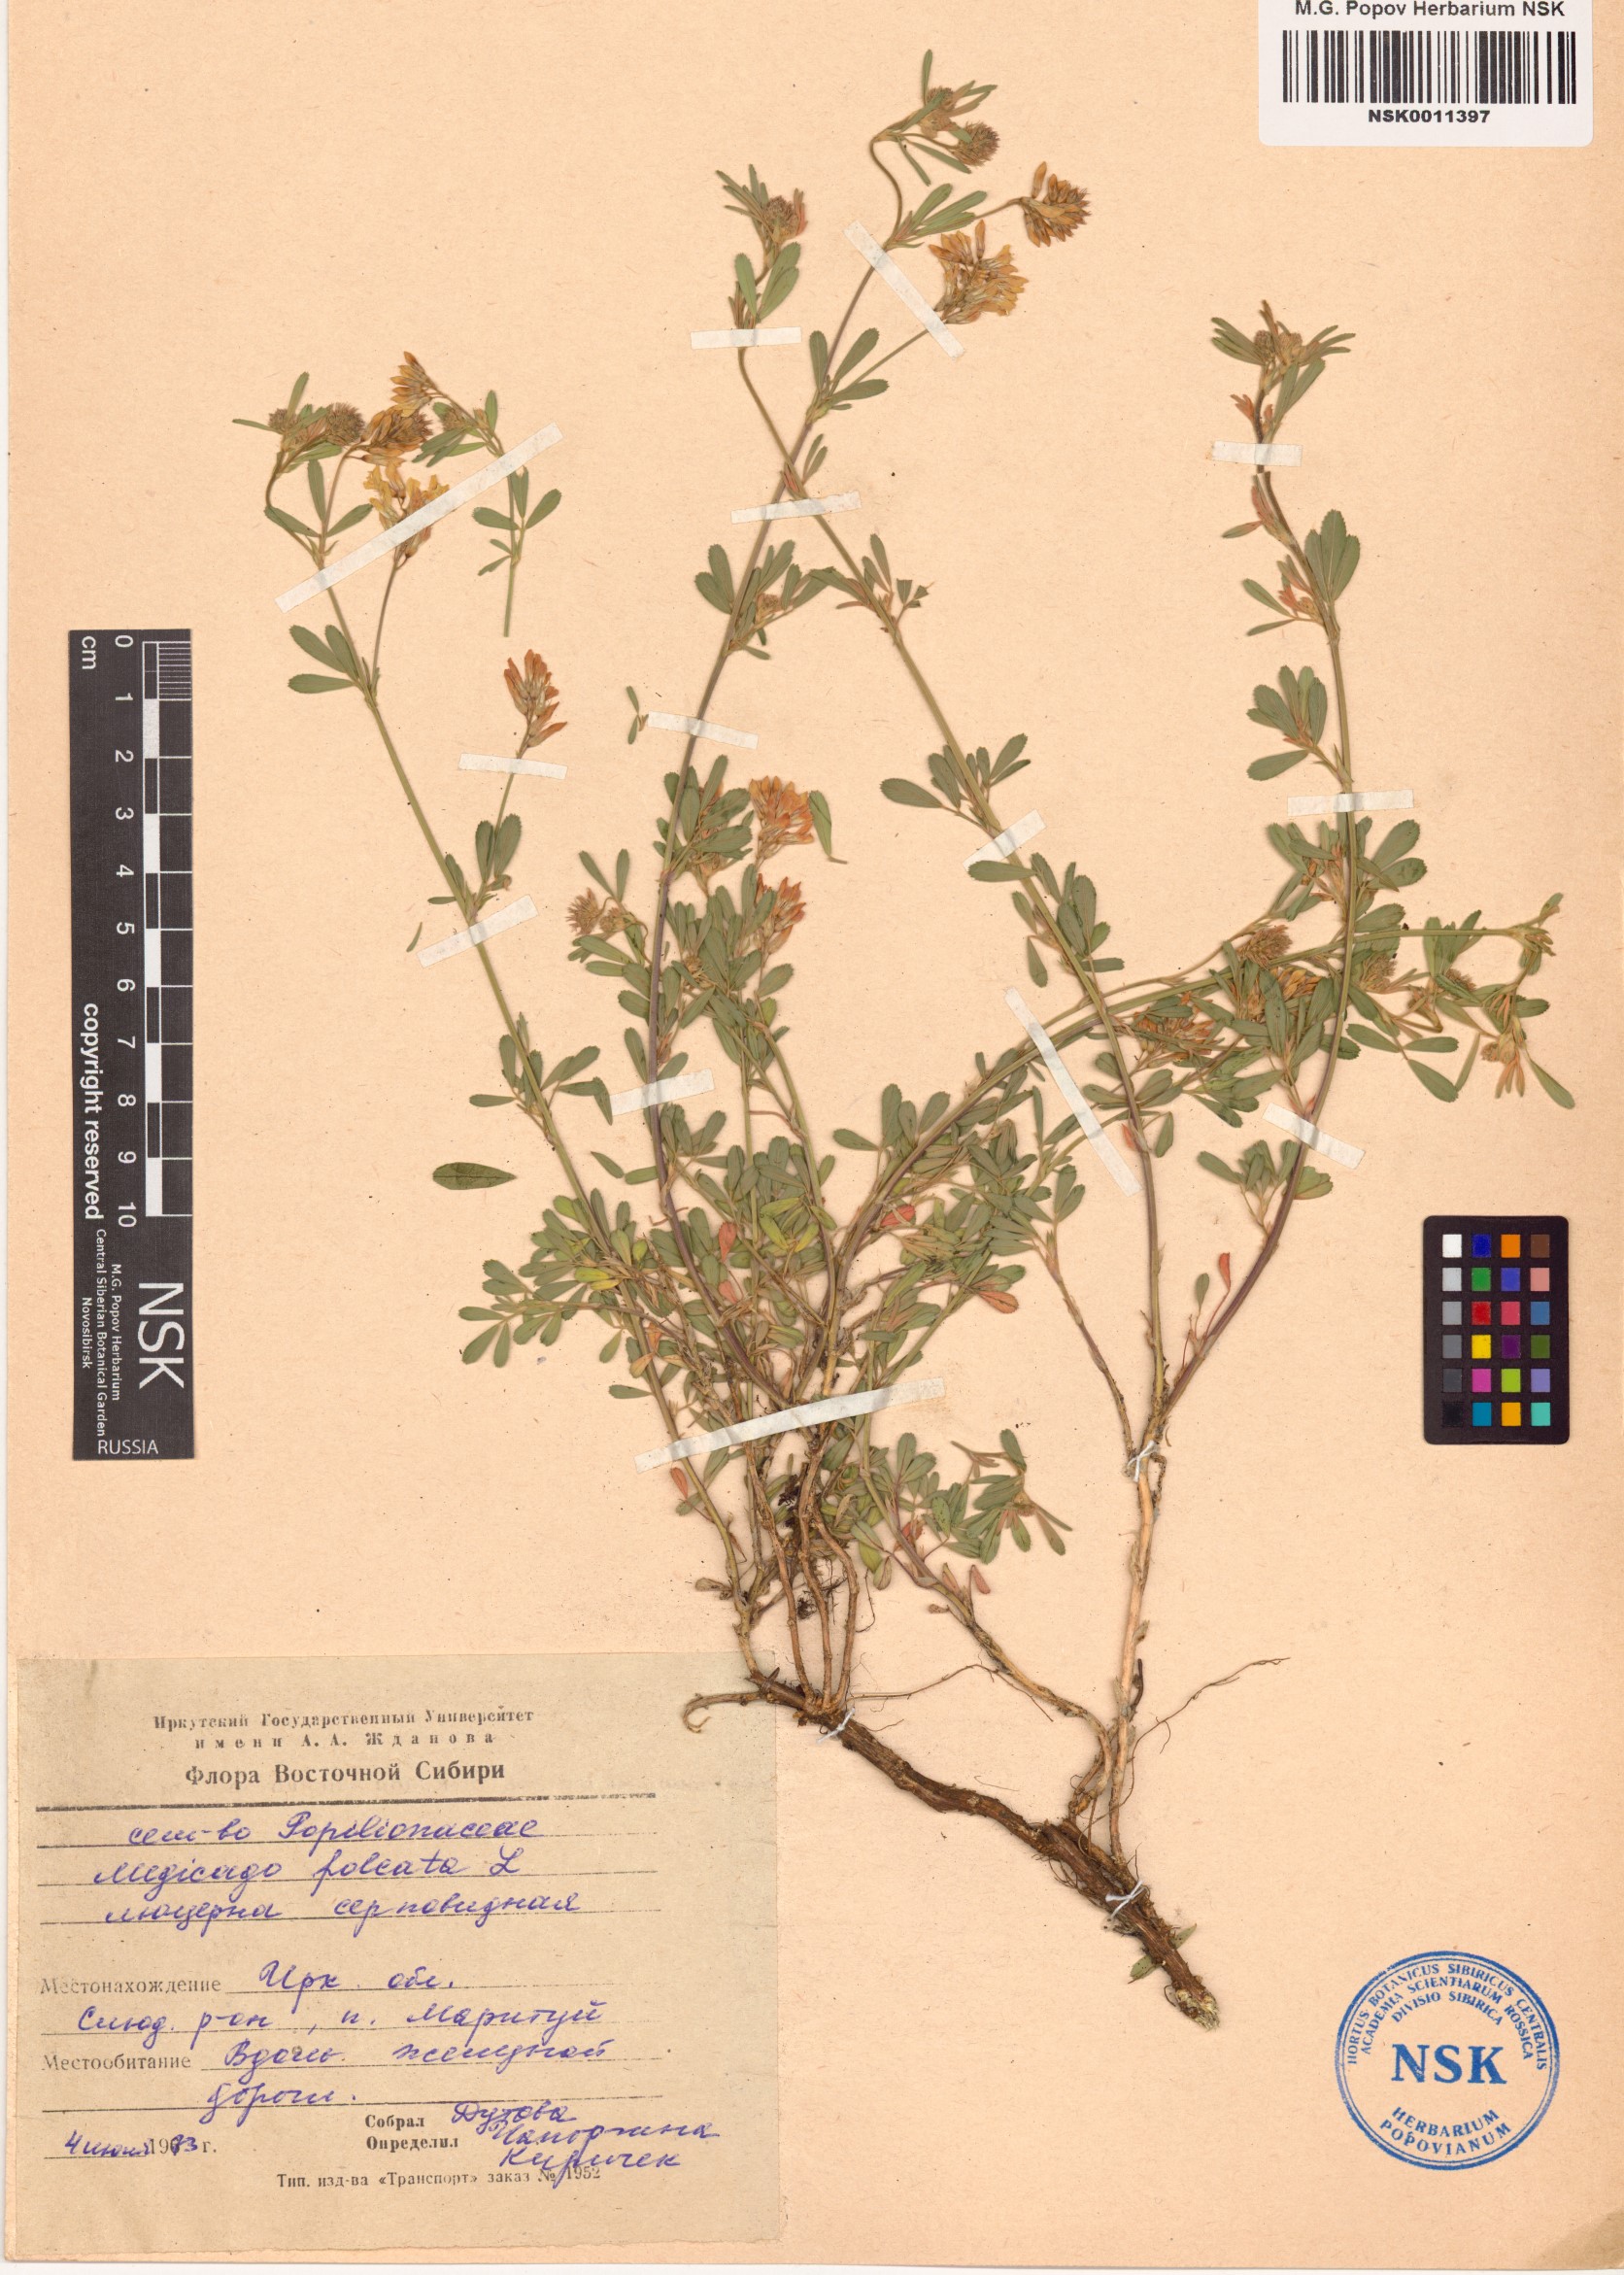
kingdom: Plantae
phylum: Tracheophyta
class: Magnoliopsida
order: Fabales
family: Fabaceae
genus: Medicago
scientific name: Medicago falcata
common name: Sickle medick
